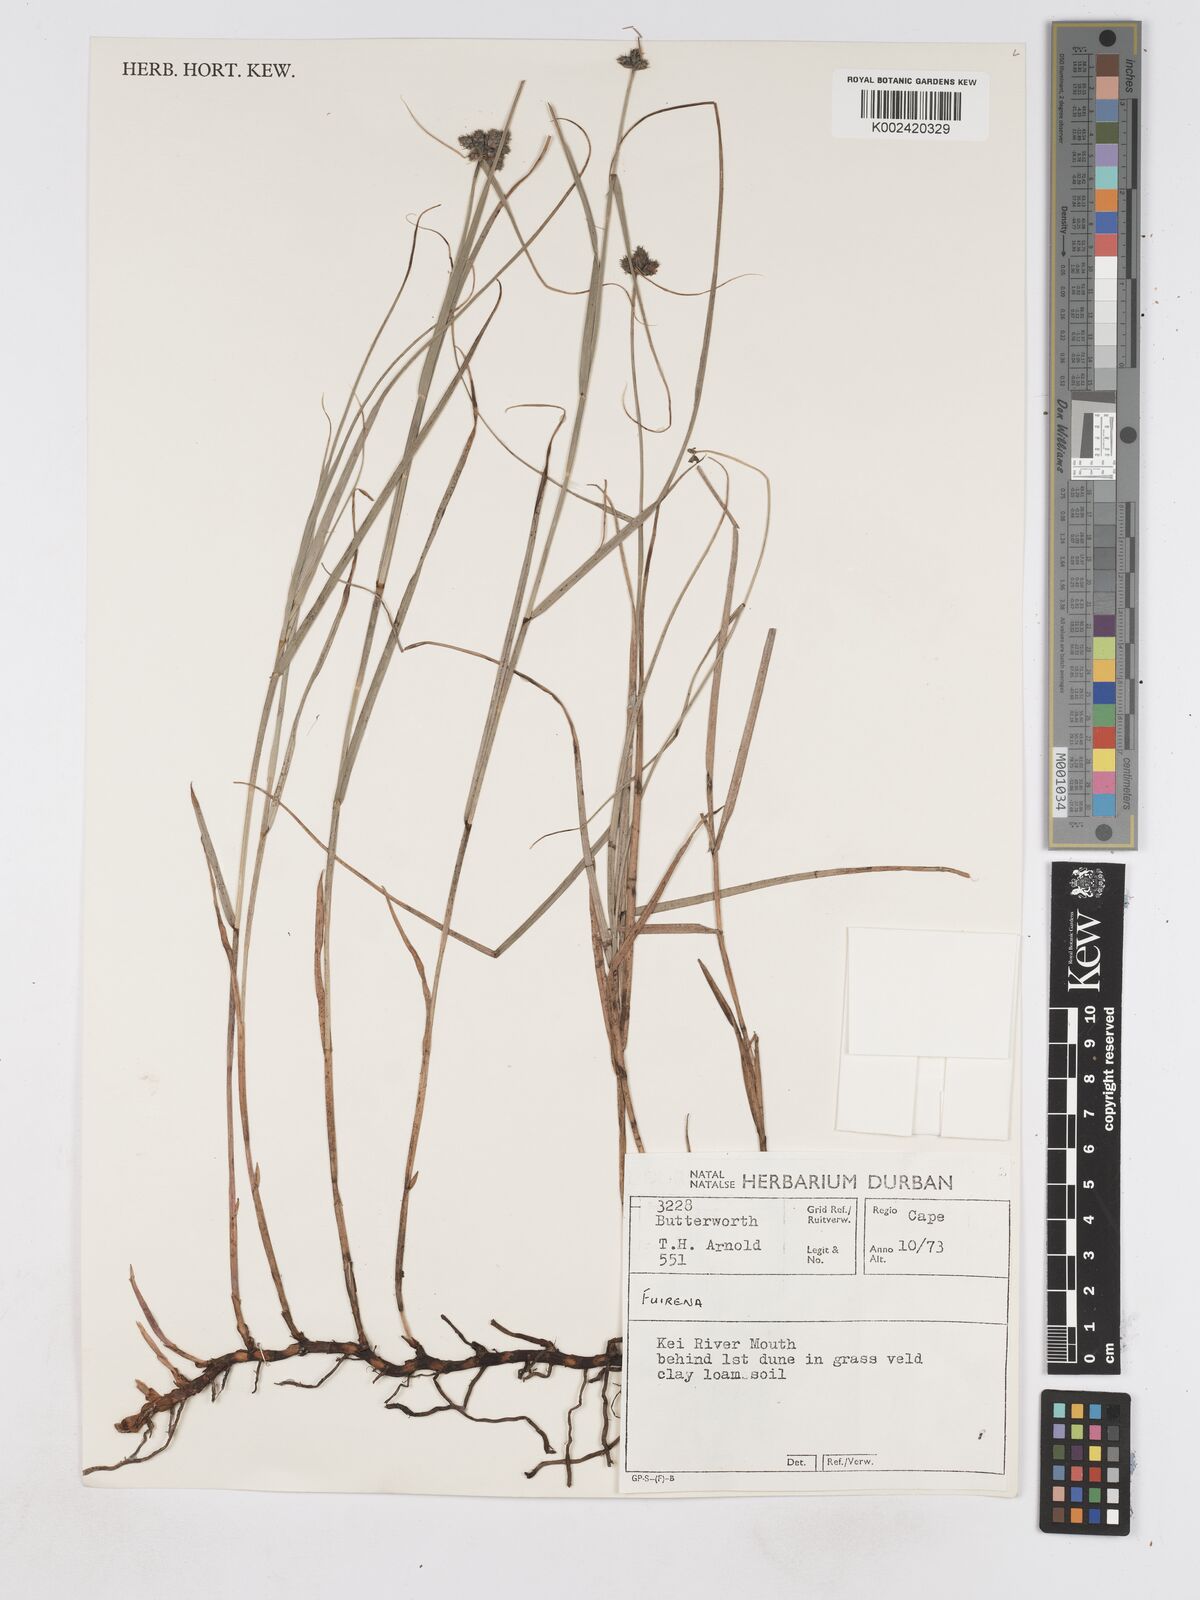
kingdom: Plantae
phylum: Tracheophyta
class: Liliopsida
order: Poales
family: Cyperaceae
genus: Fuirena
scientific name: Fuirena
